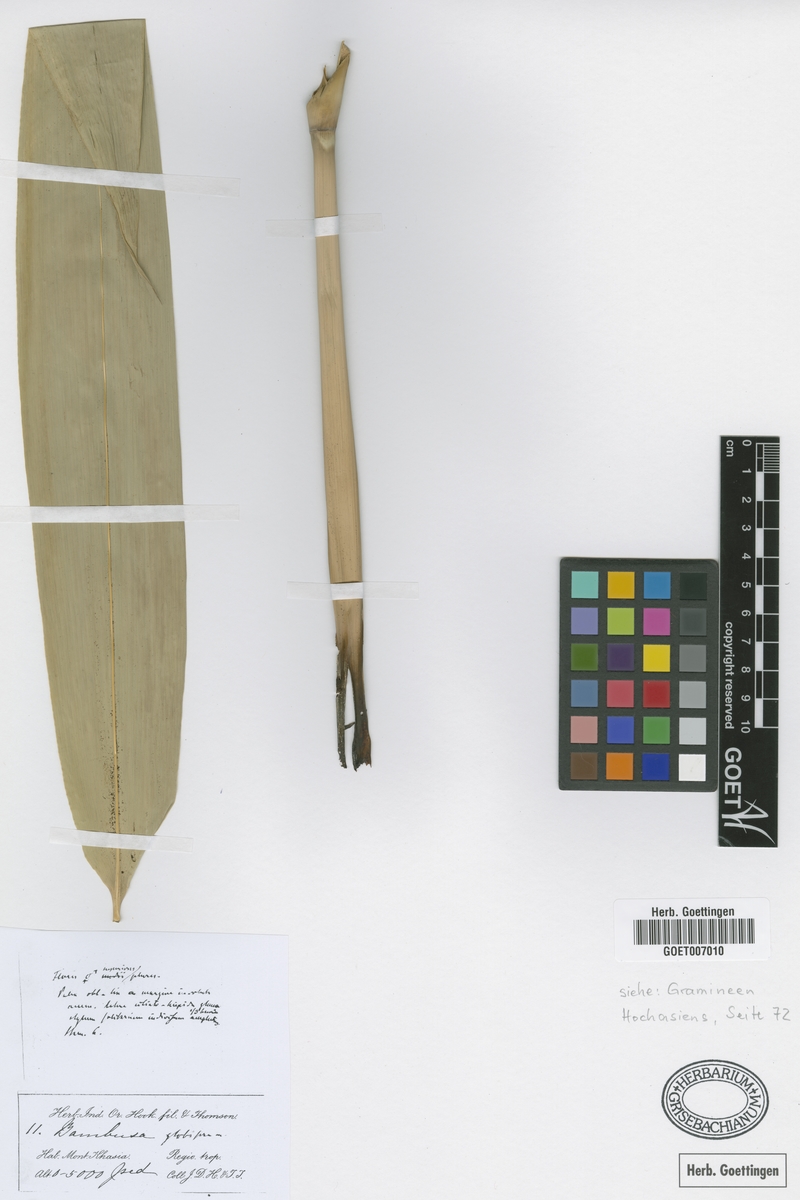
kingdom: Plantae
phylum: Tracheophyta
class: Liliopsida
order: Poales
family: Poaceae
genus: Dendrocalamus
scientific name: Dendrocalamus hookeri
